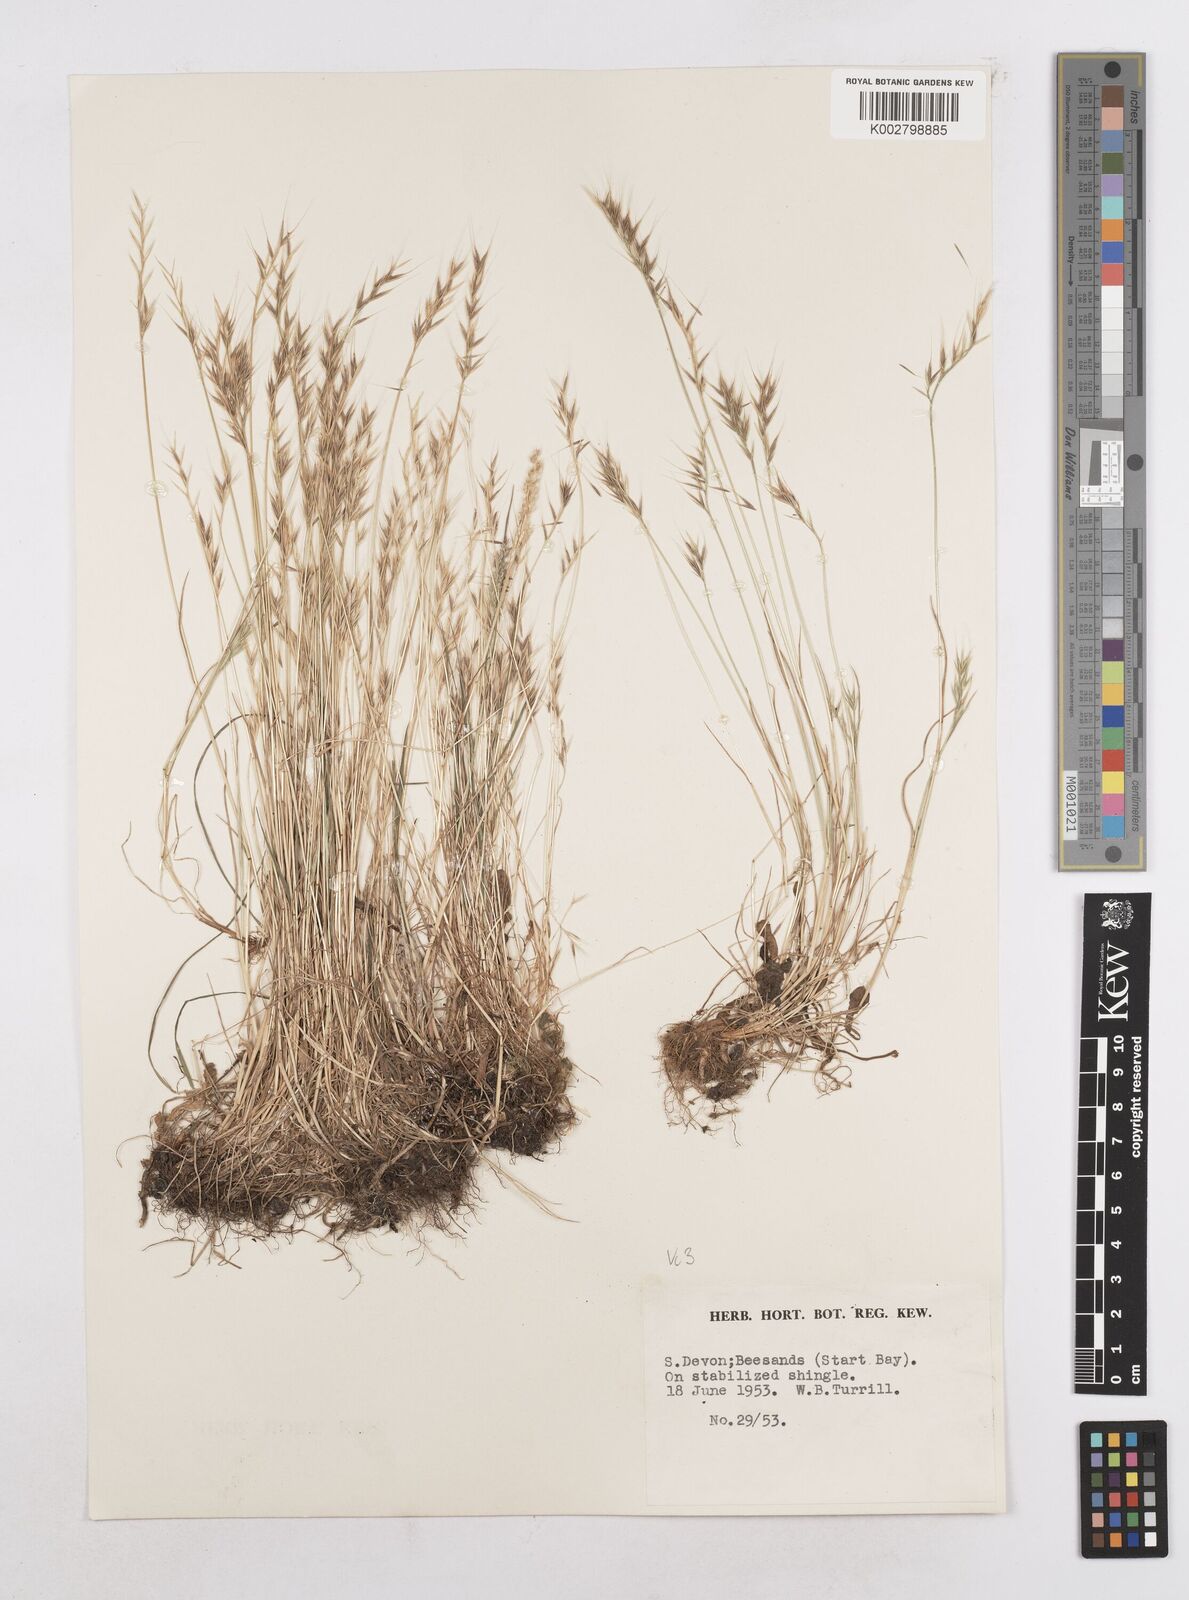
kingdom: Plantae
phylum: Tracheophyta
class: Liliopsida
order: Poales
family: Poaceae
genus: Festuca
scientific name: Festuca bromoides
